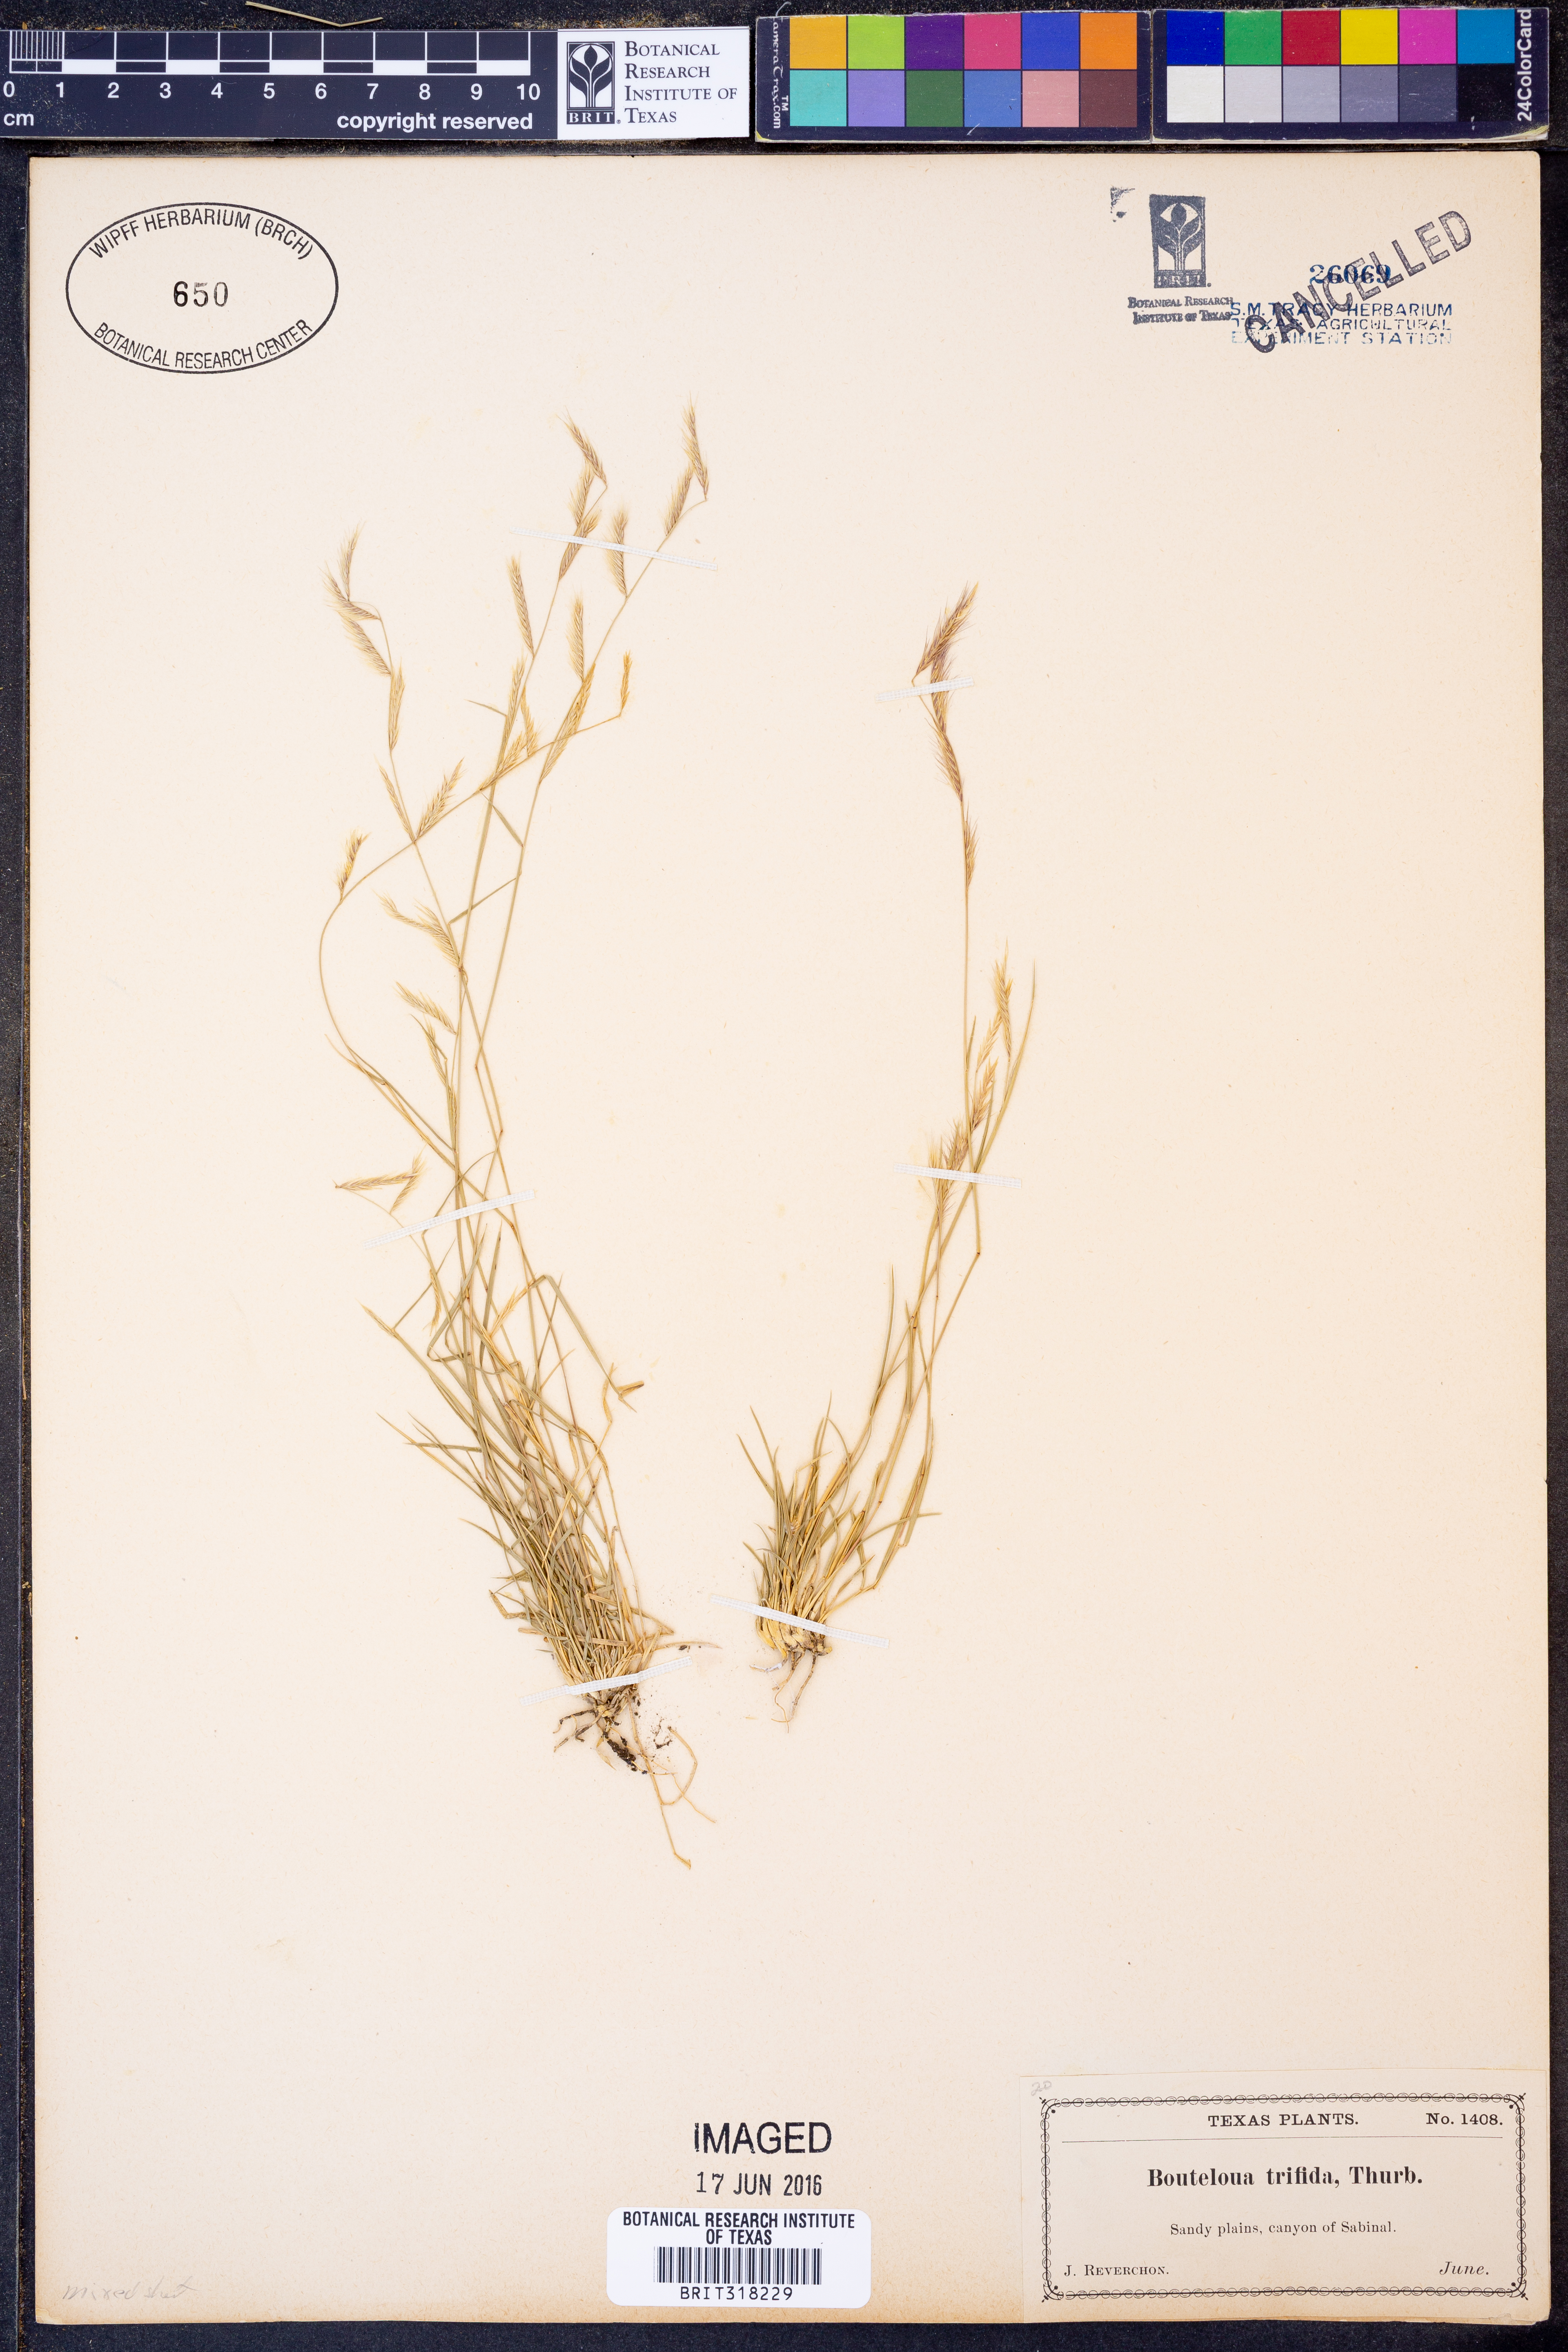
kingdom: Plantae
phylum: Tracheophyta
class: Liliopsida
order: Poales
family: Poaceae
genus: Bouteloua
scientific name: Bouteloua trifida
